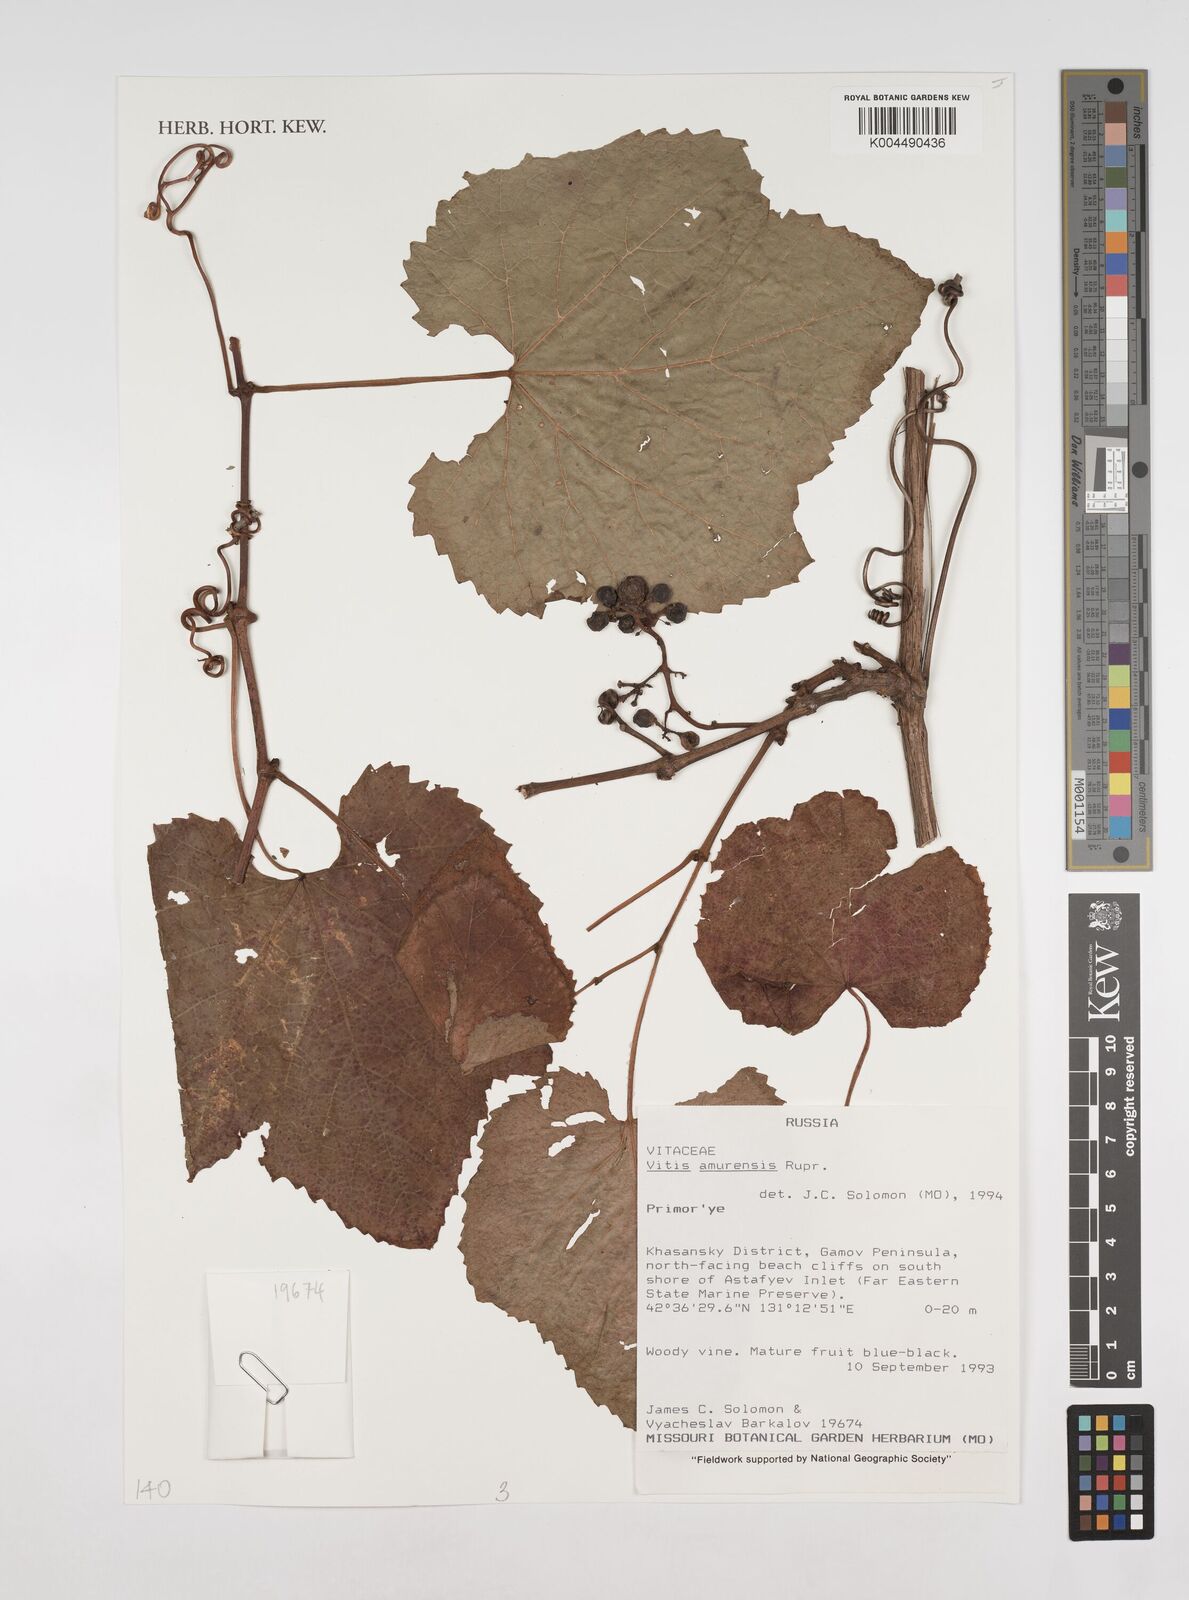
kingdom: Plantae
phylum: Tracheophyta
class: Magnoliopsida
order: Vitales
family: Vitaceae
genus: Vitis
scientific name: Vitis vinifera
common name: Grape-vine
